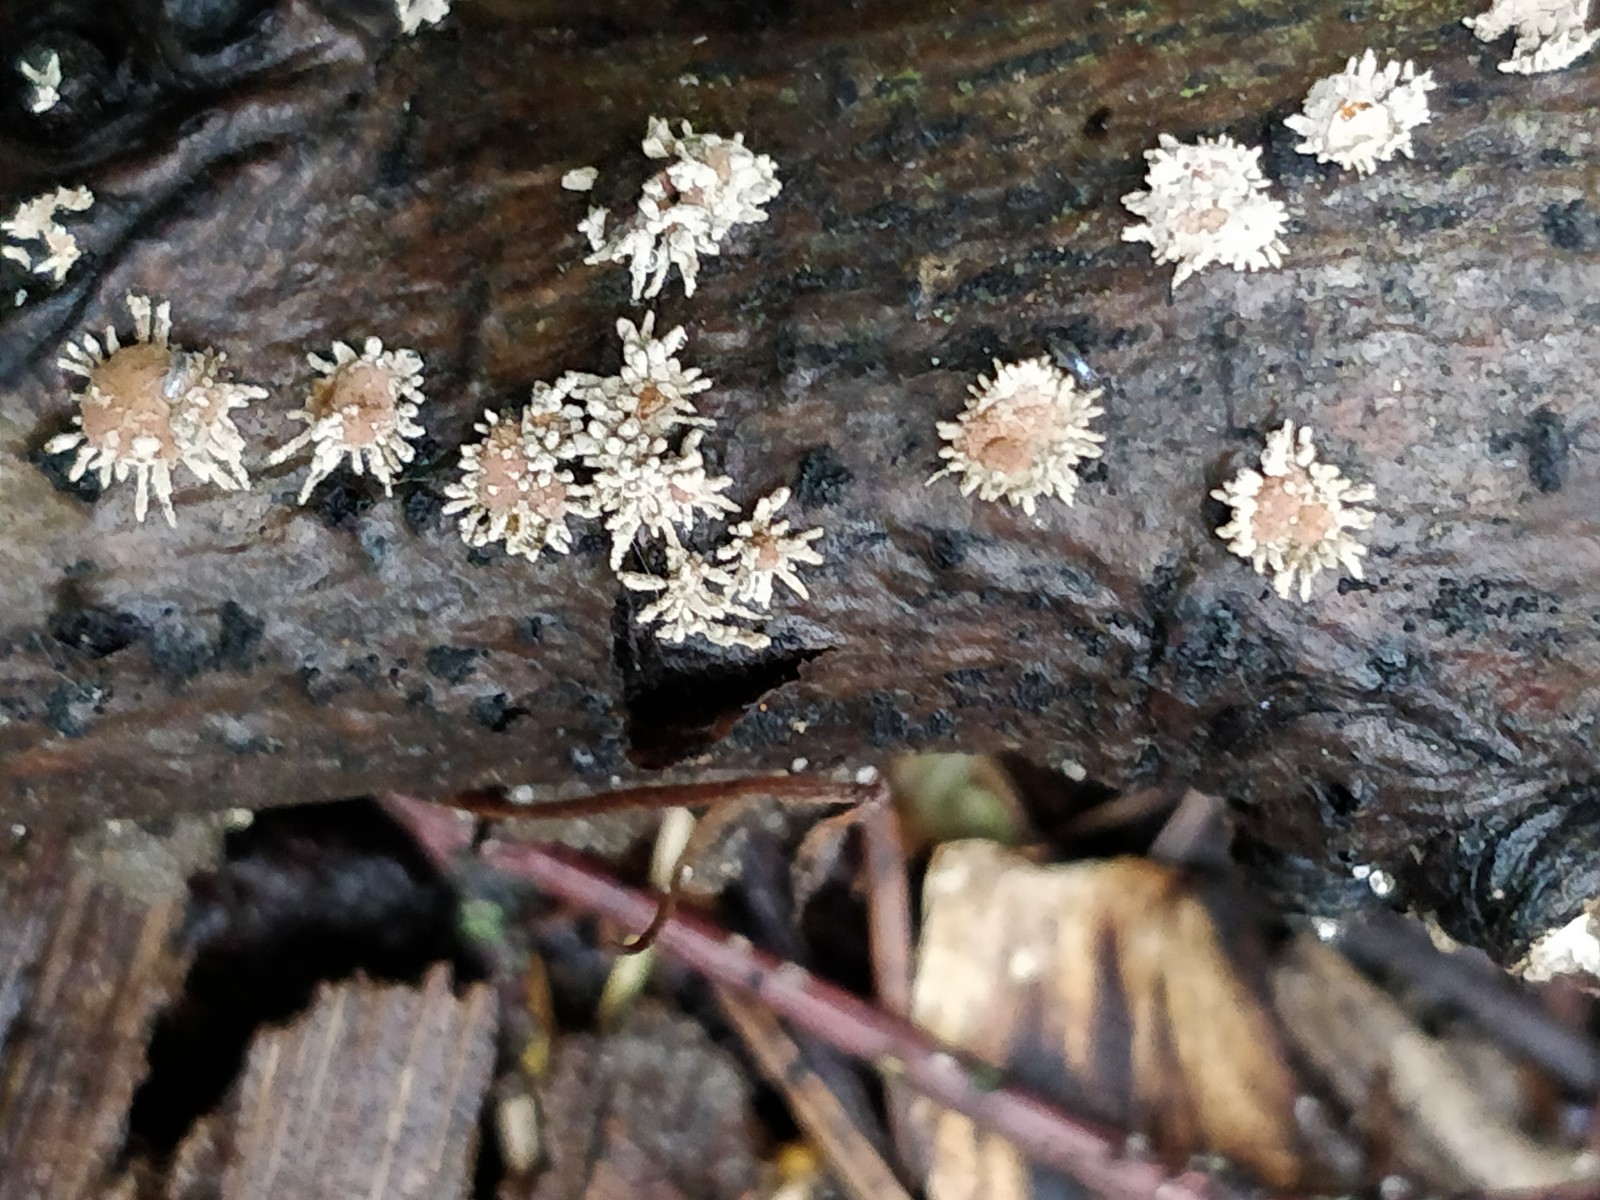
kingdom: Fungi
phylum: Ascomycota
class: Sordariomycetes
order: Xylariales
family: Hypoxylaceae
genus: Hypoxylon
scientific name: Hypoxylon howeanum
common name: halvkugleformet kulbær
